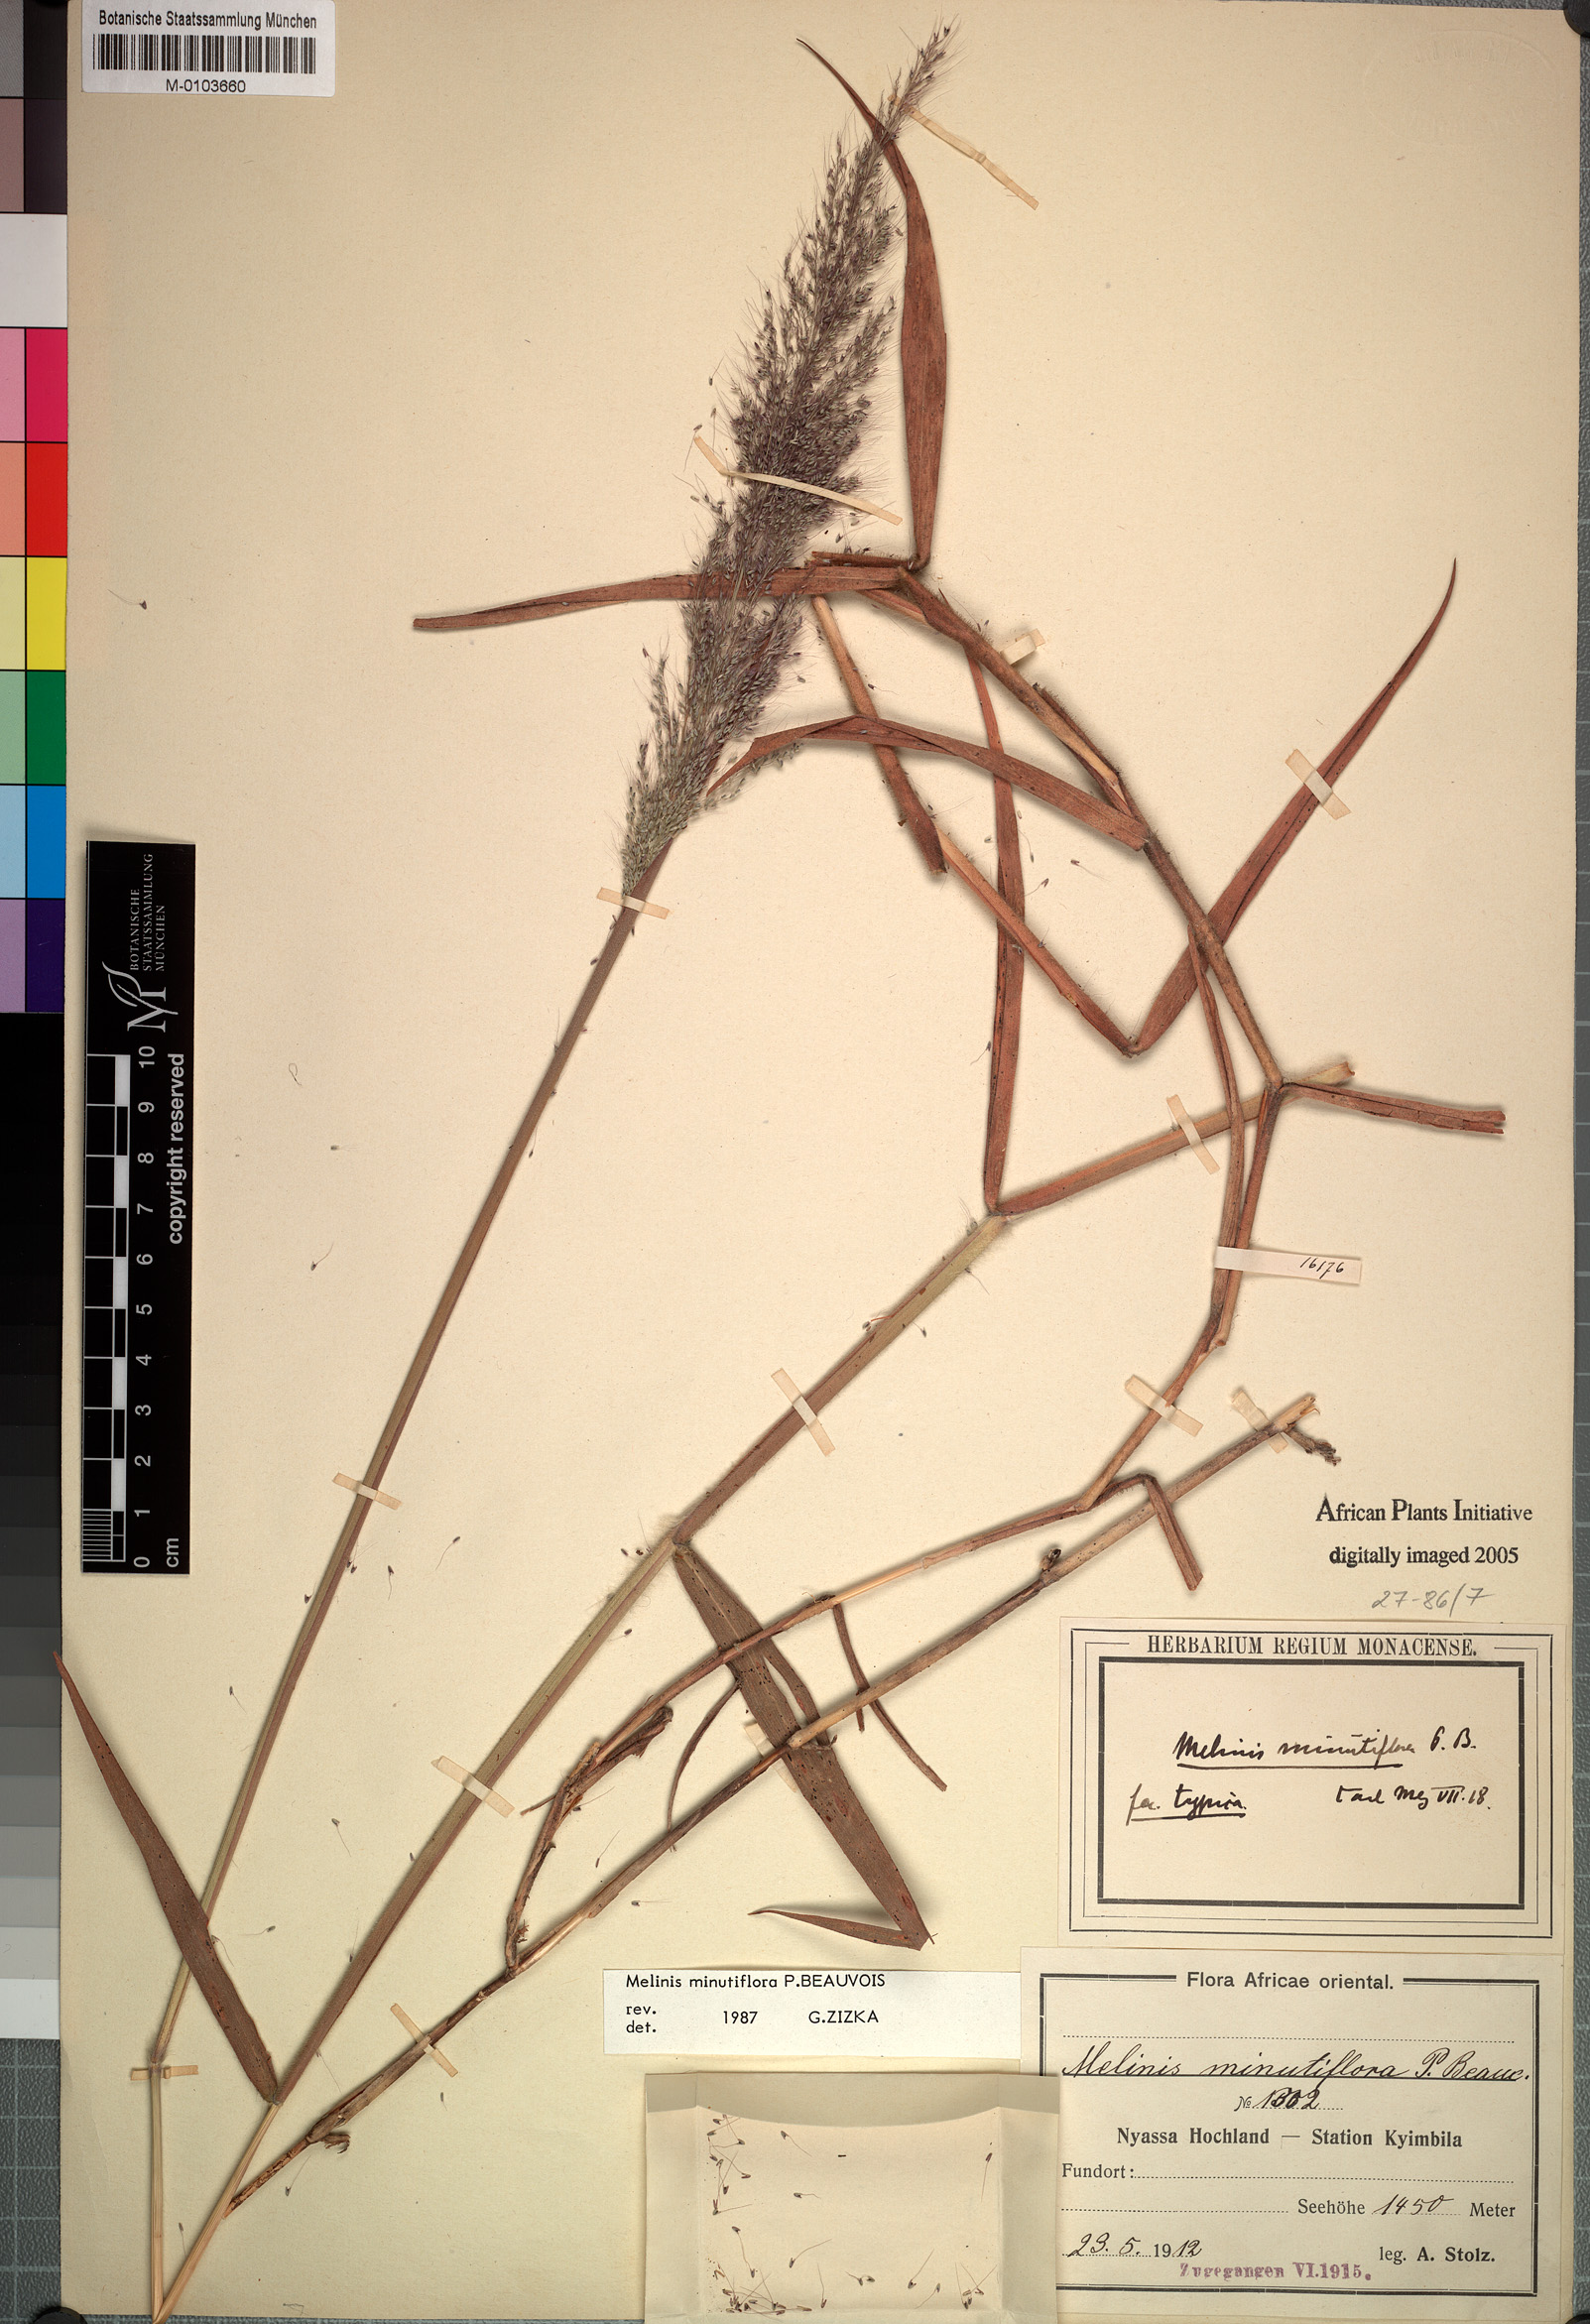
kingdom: Plantae
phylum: Tracheophyta
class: Liliopsida
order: Poales
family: Poaceae
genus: Melinis
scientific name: Melinis minutiflora
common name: Molassesgrass
